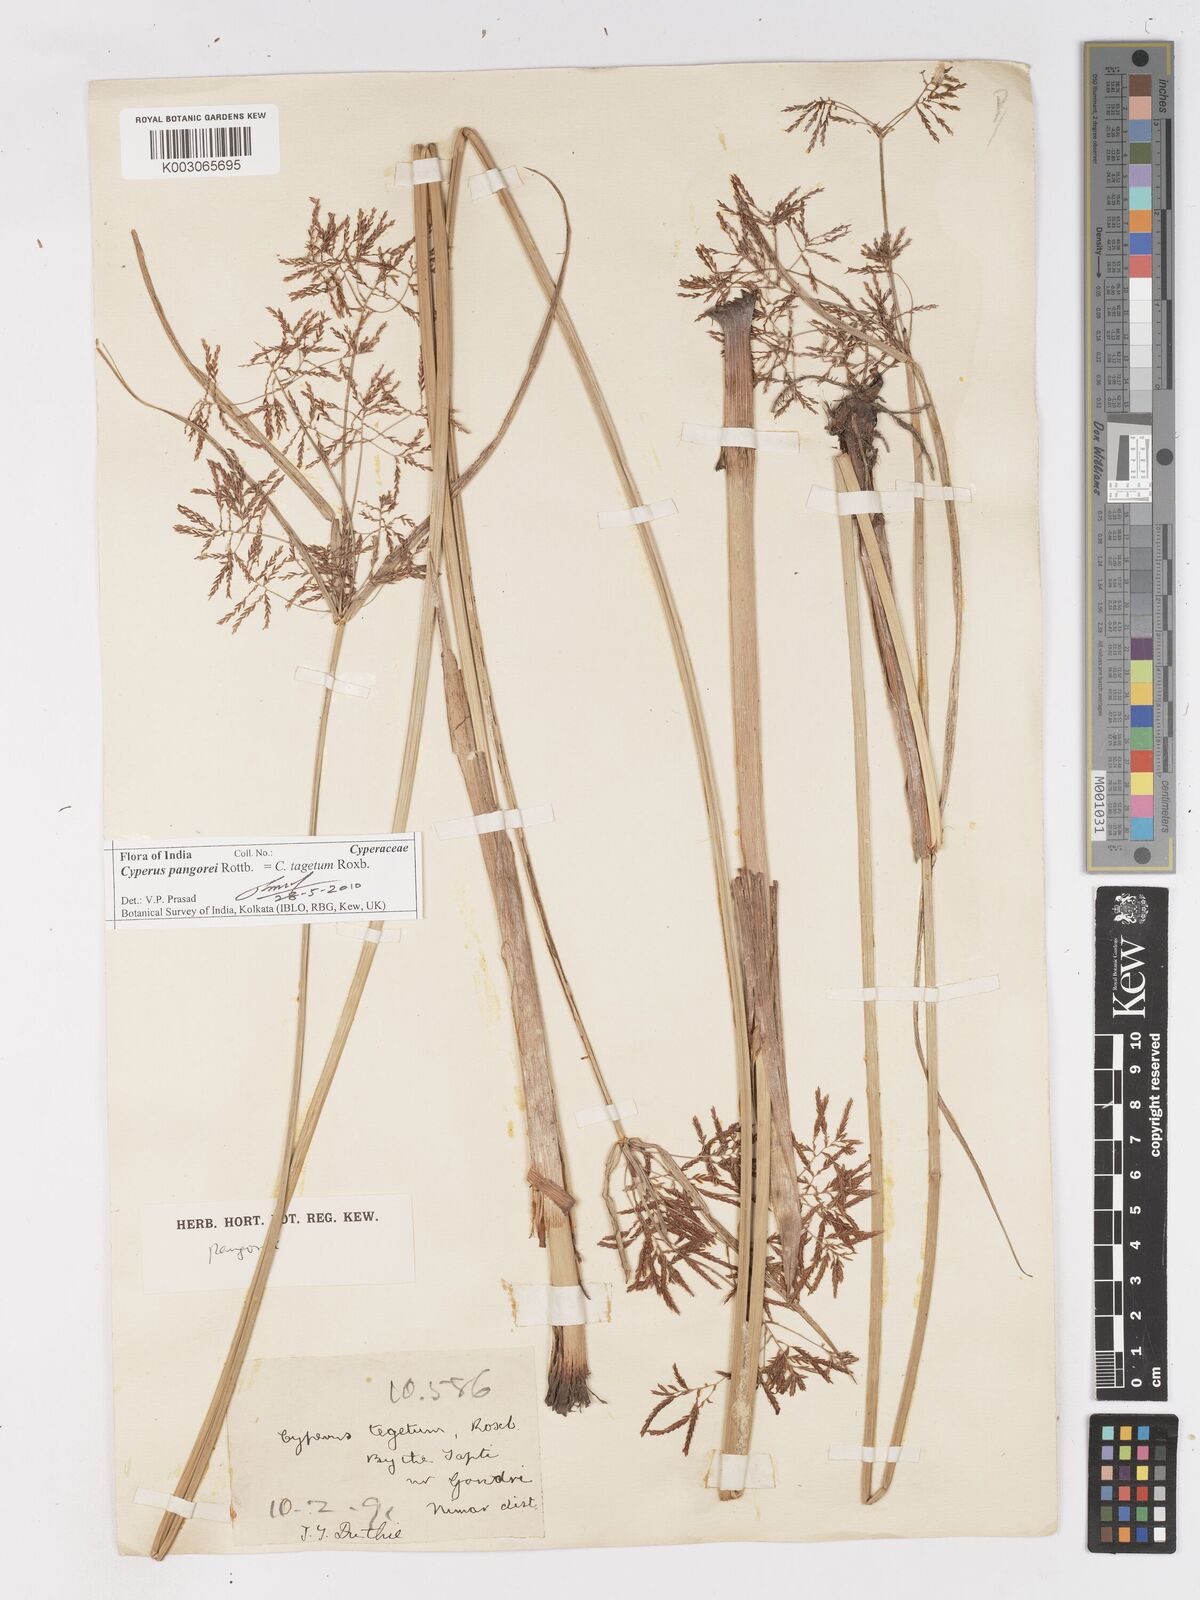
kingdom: Plantae
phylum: Tracheophyta
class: Liliopsida
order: Poales
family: Cyperaceae
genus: Cyperus
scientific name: Cyperus pangorei
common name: Mat sedge
